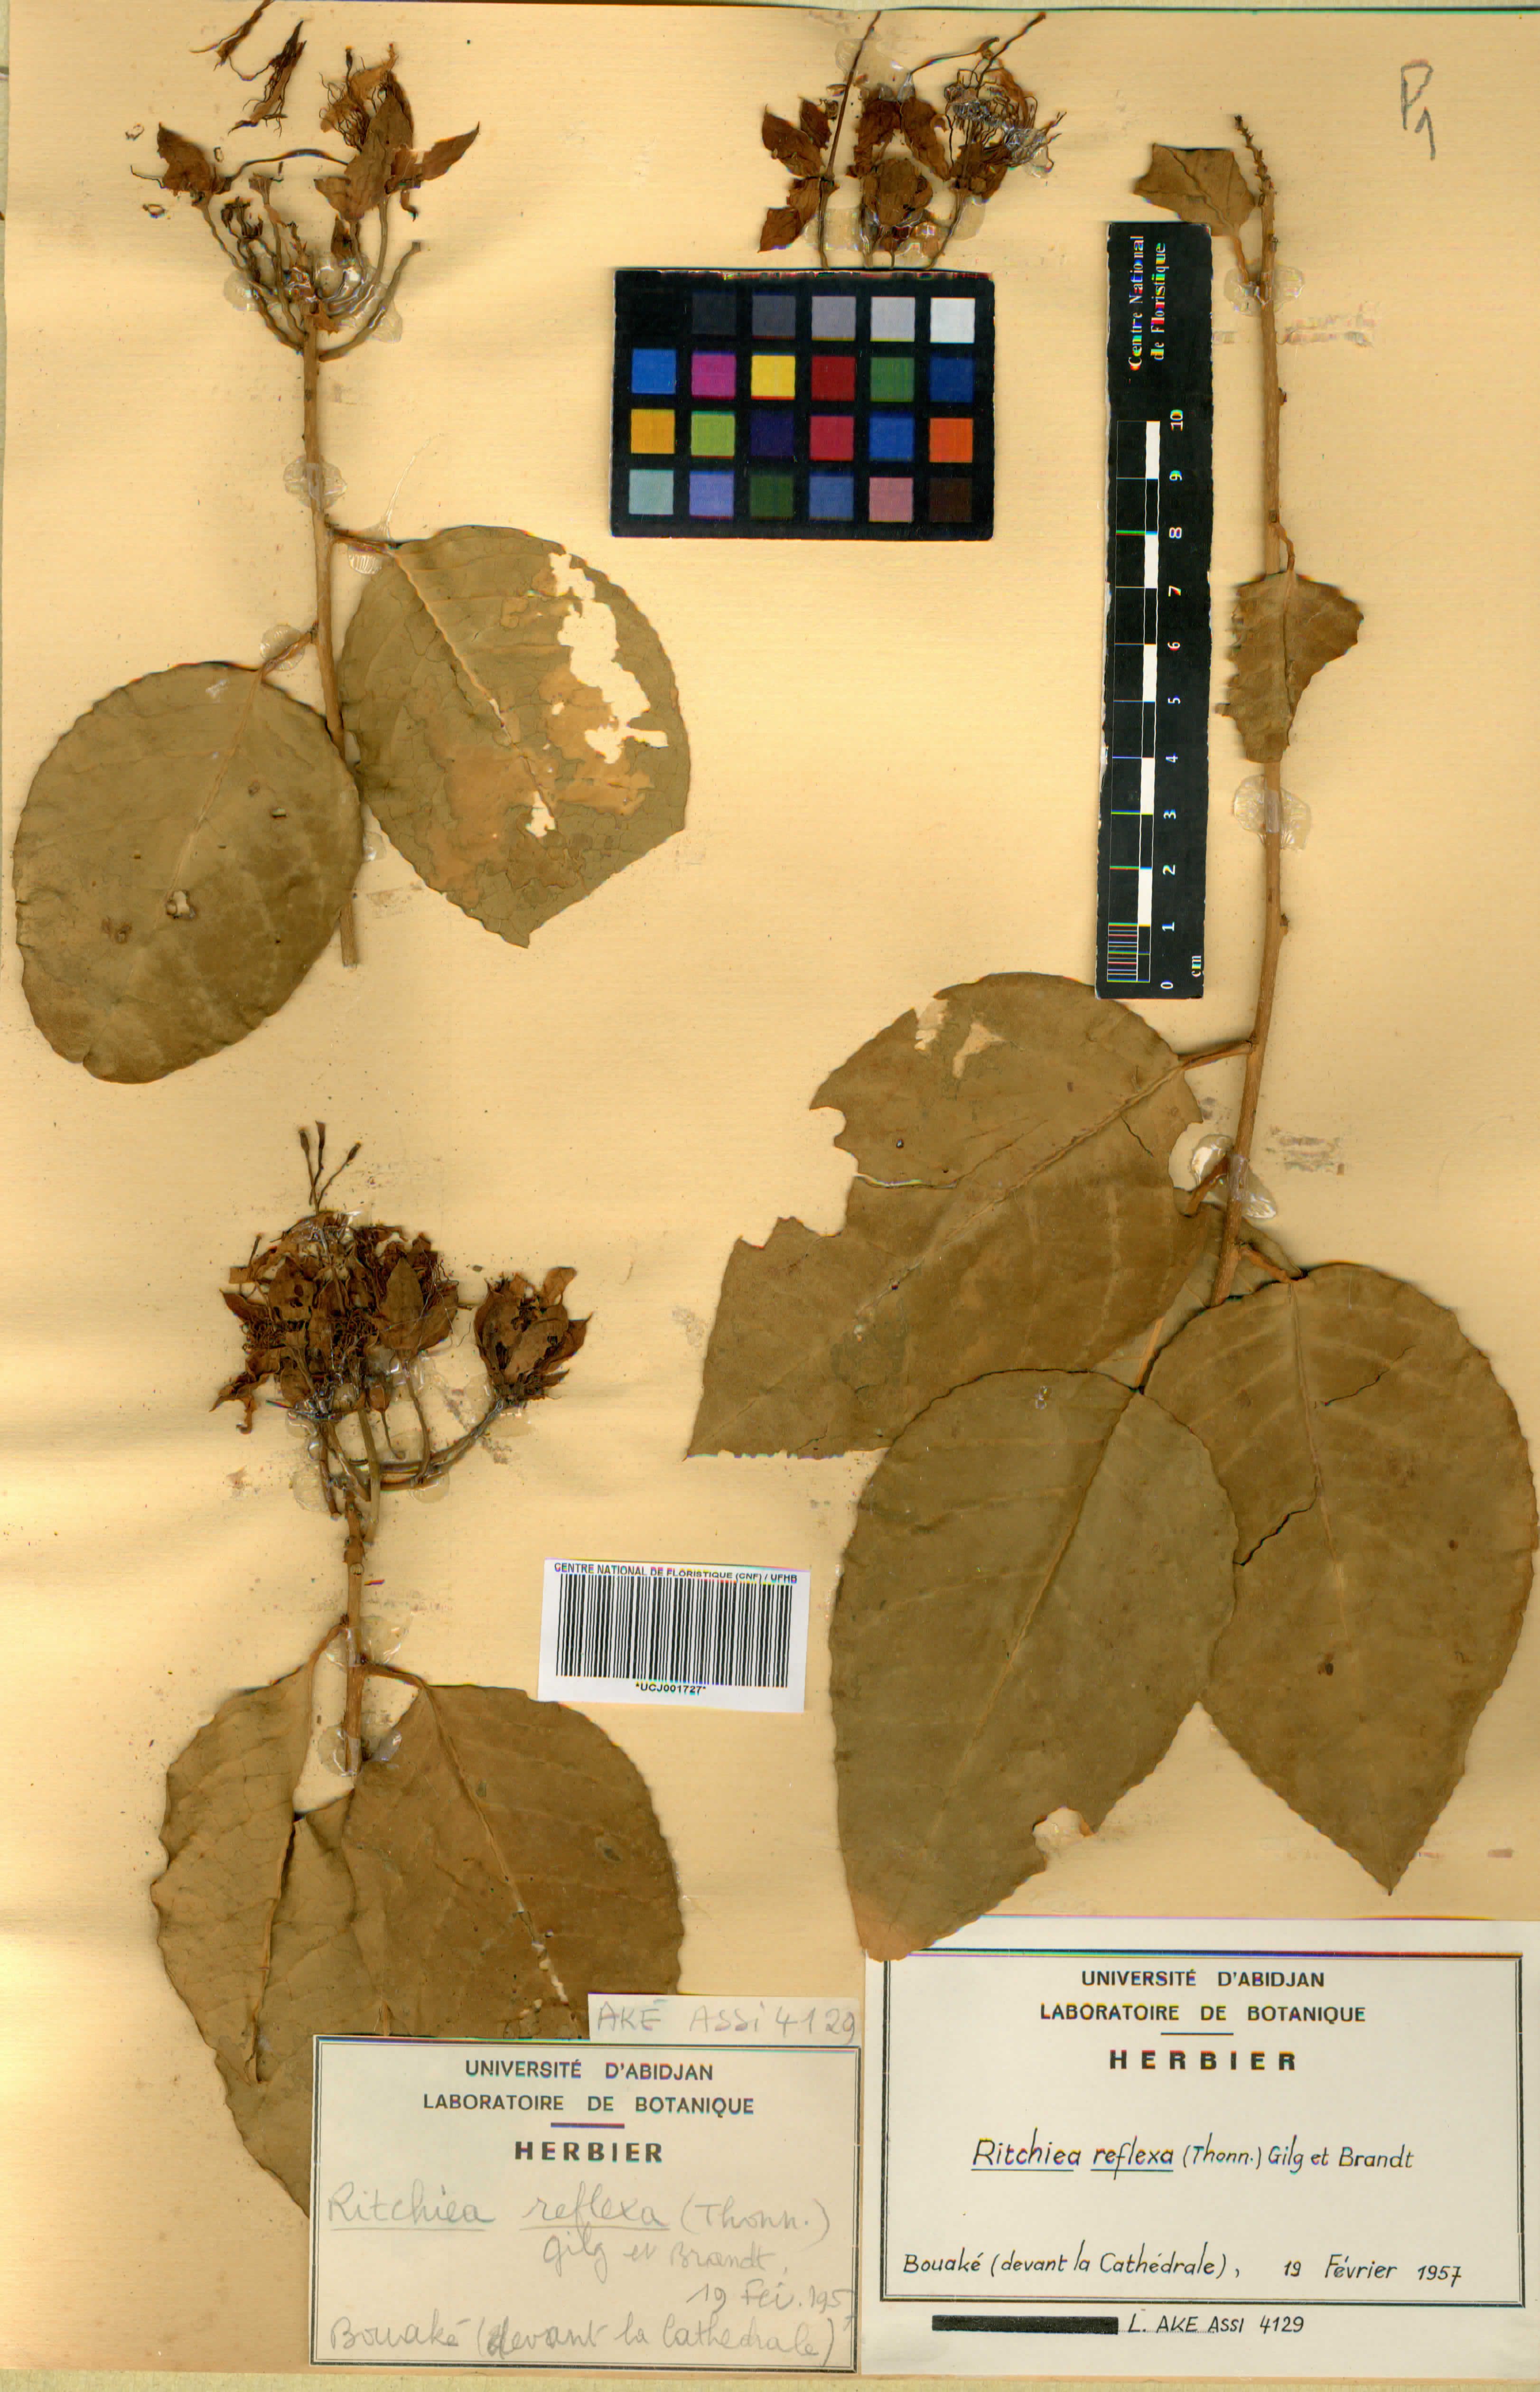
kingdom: Plantae
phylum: Tracheophyta
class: Magnoliopsida
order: Brassicales
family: Capparaceae
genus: Ritchiea
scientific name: Ritchiea reflexa
